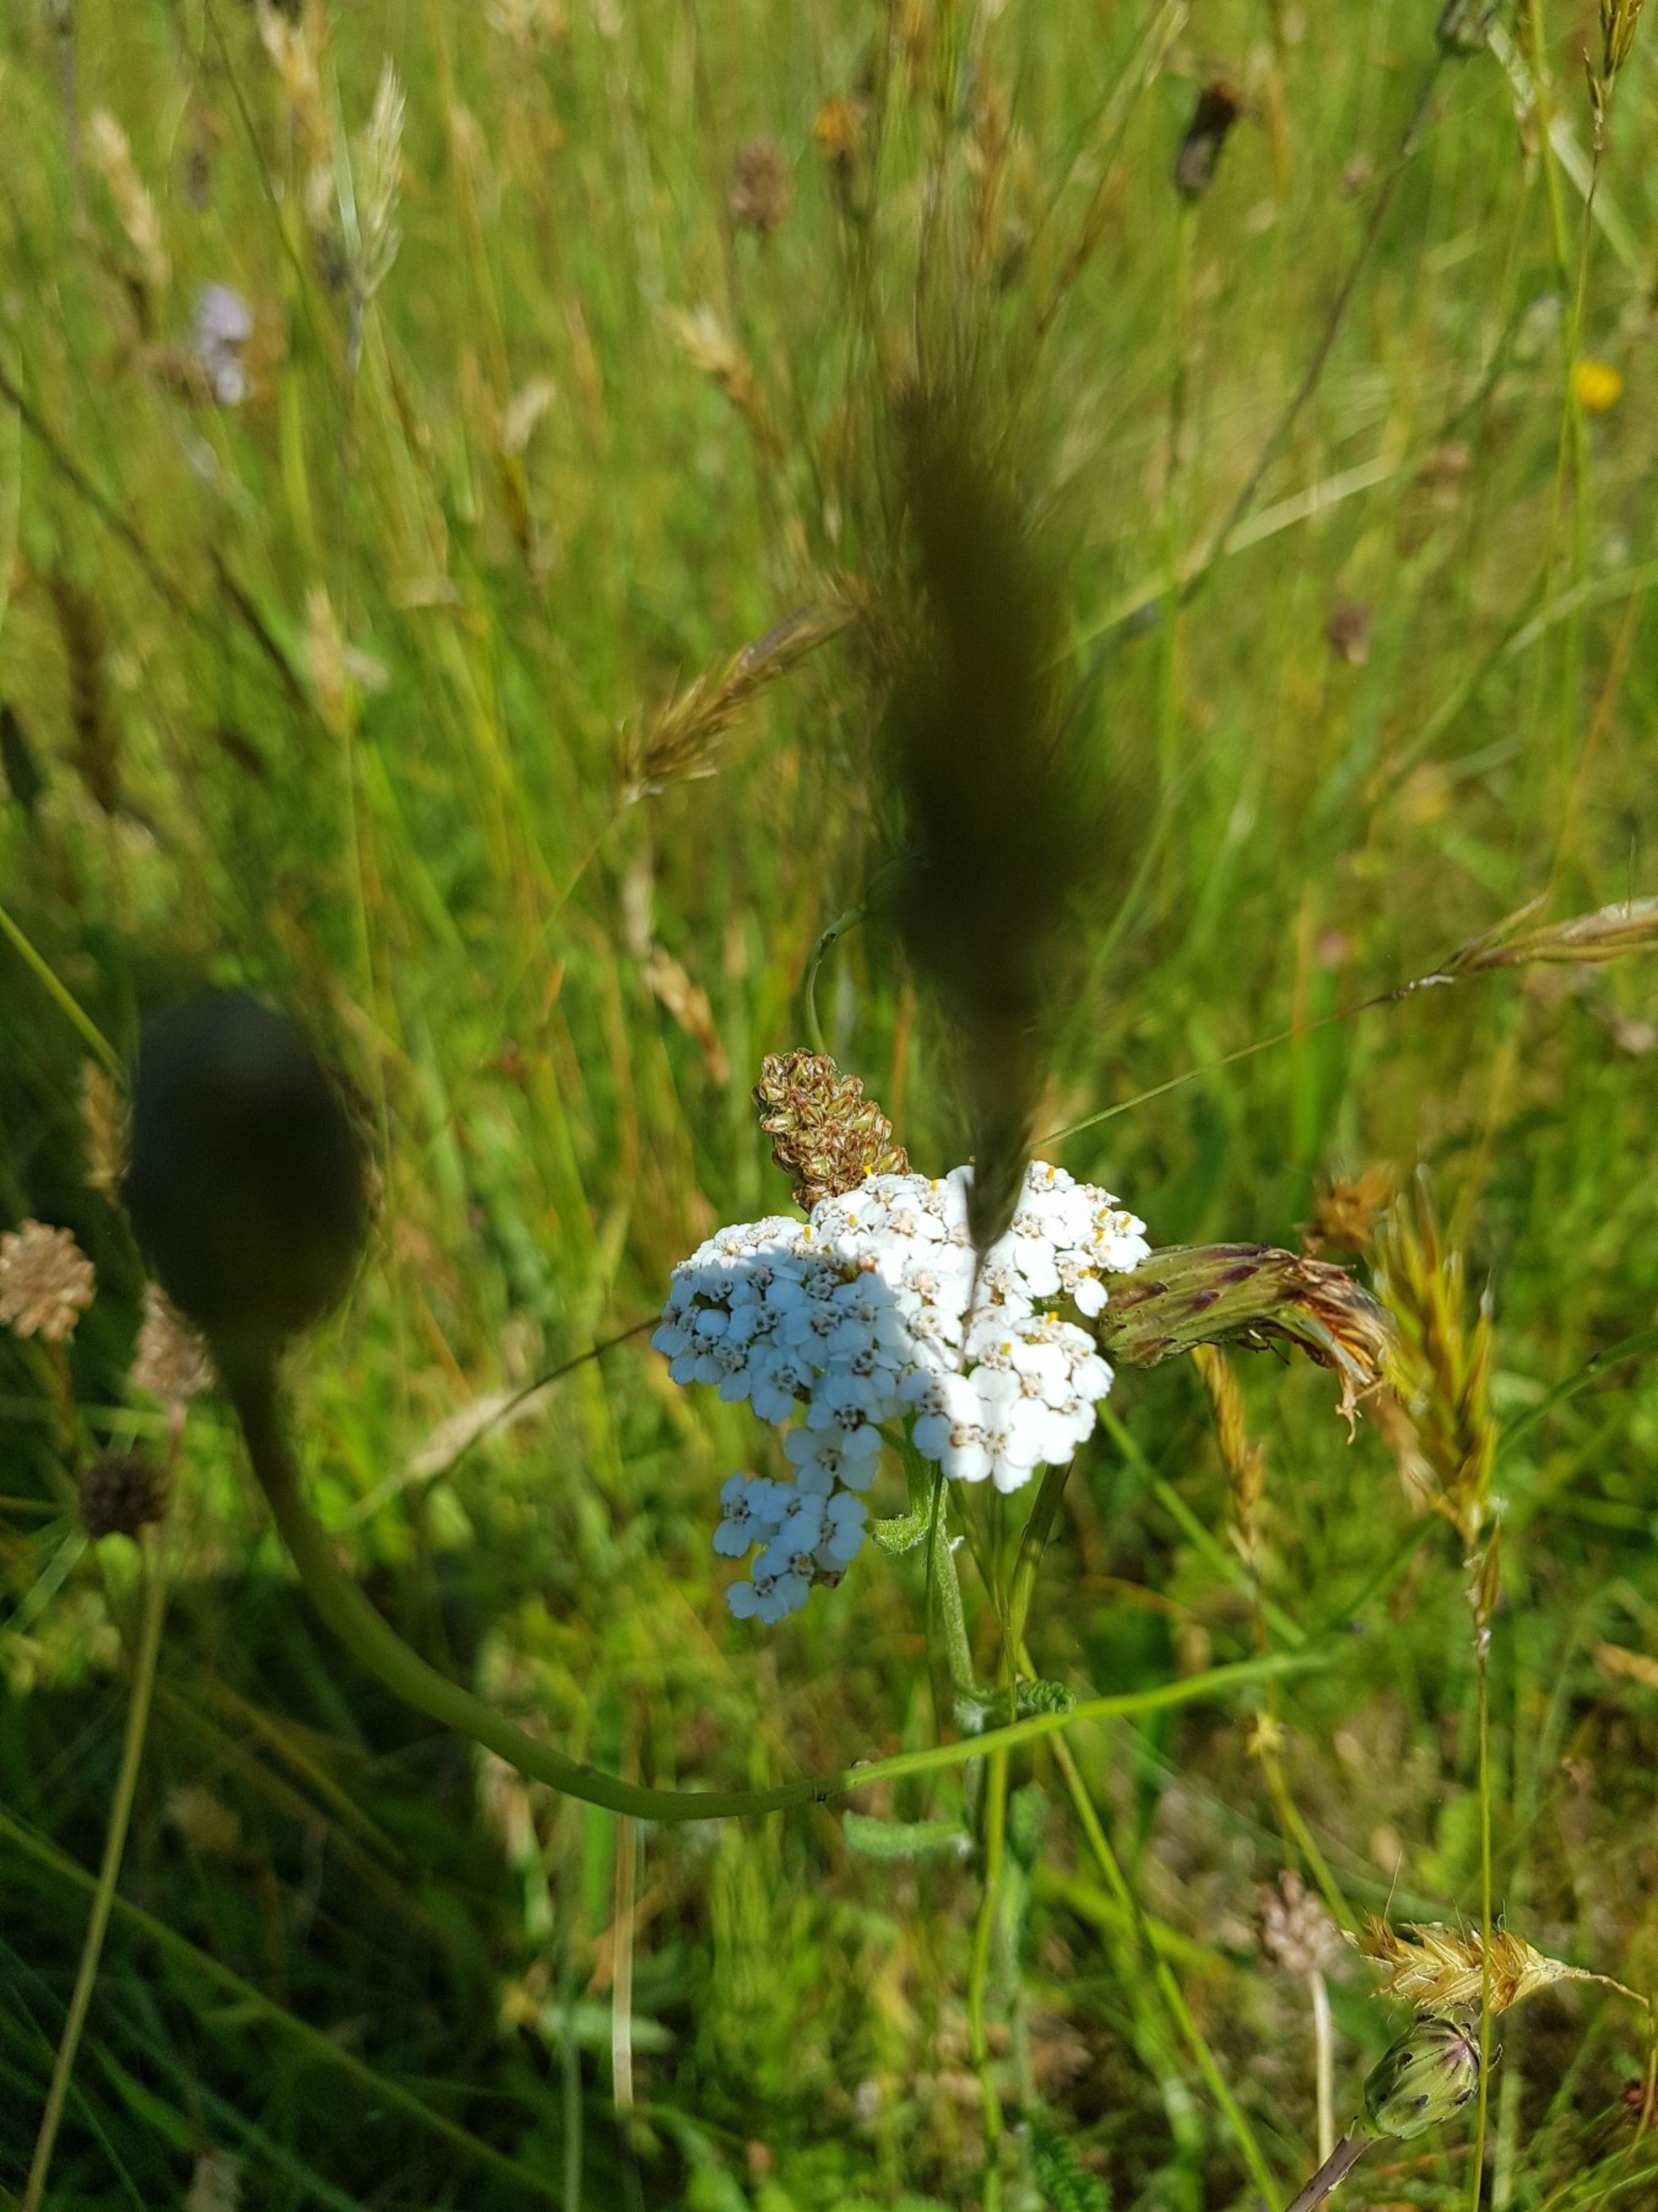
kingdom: Plantae
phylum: Tracheophyta
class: Magnoliopsida
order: Asterales
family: Asteraceae
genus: Achillea
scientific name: Achillea millefolium
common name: Almindelig røllike
